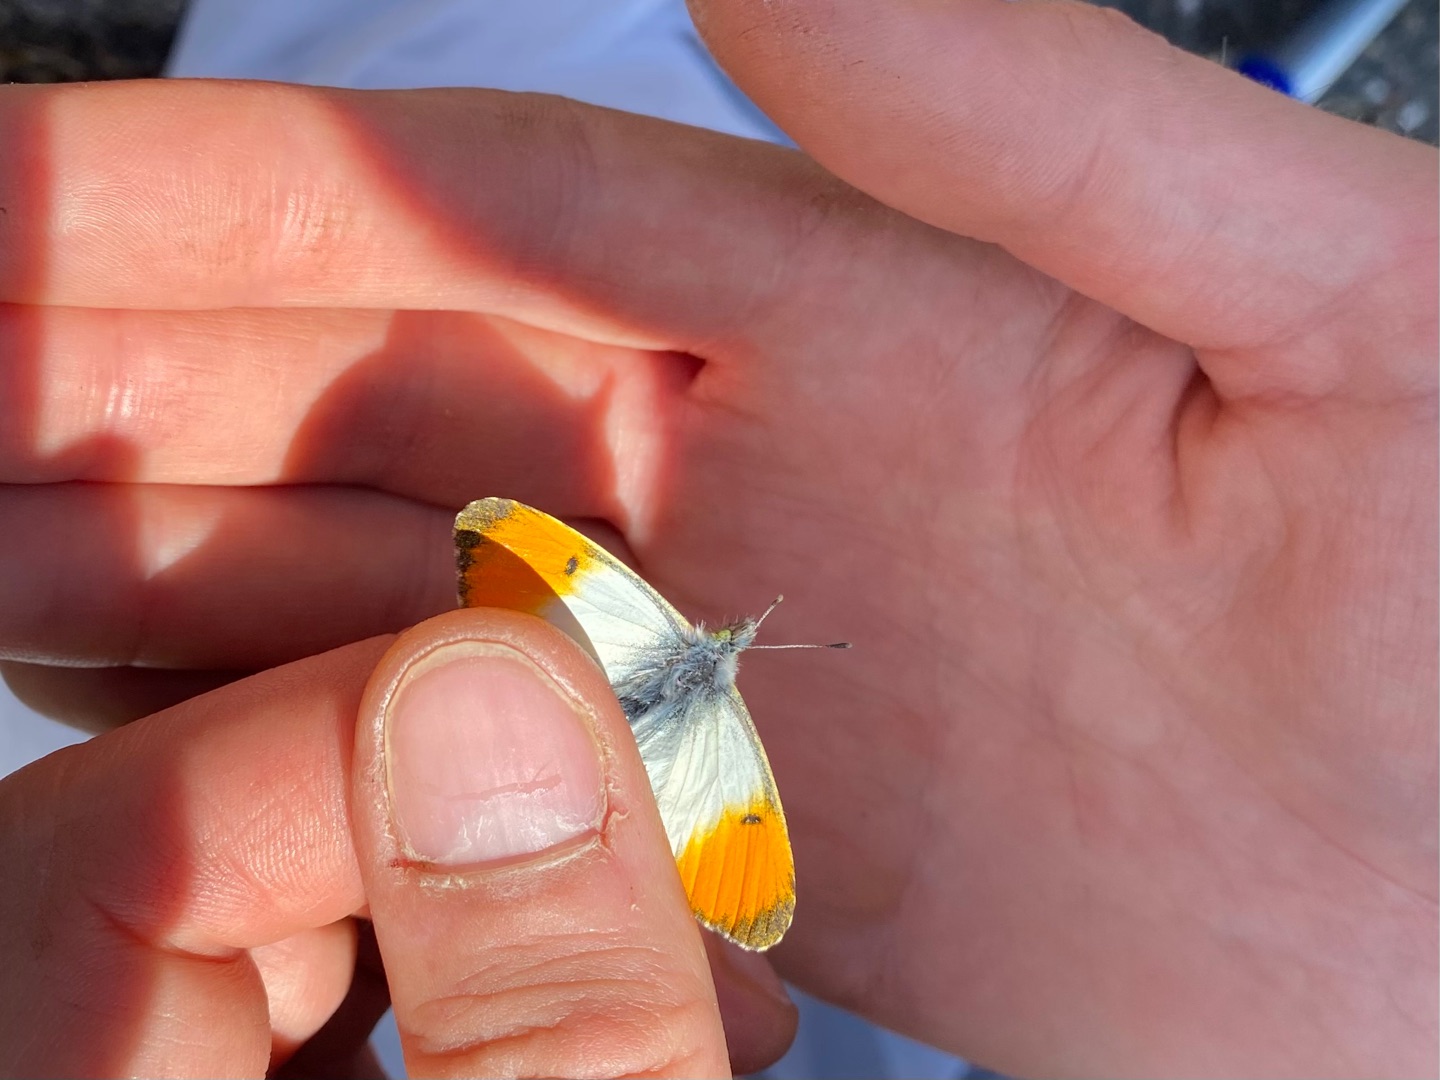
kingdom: Animalia
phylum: Arthropoda
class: Insecta
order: Lepidoptera
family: Pieridae
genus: Anthocharis
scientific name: Anthocharis cardamines
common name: Aurora
